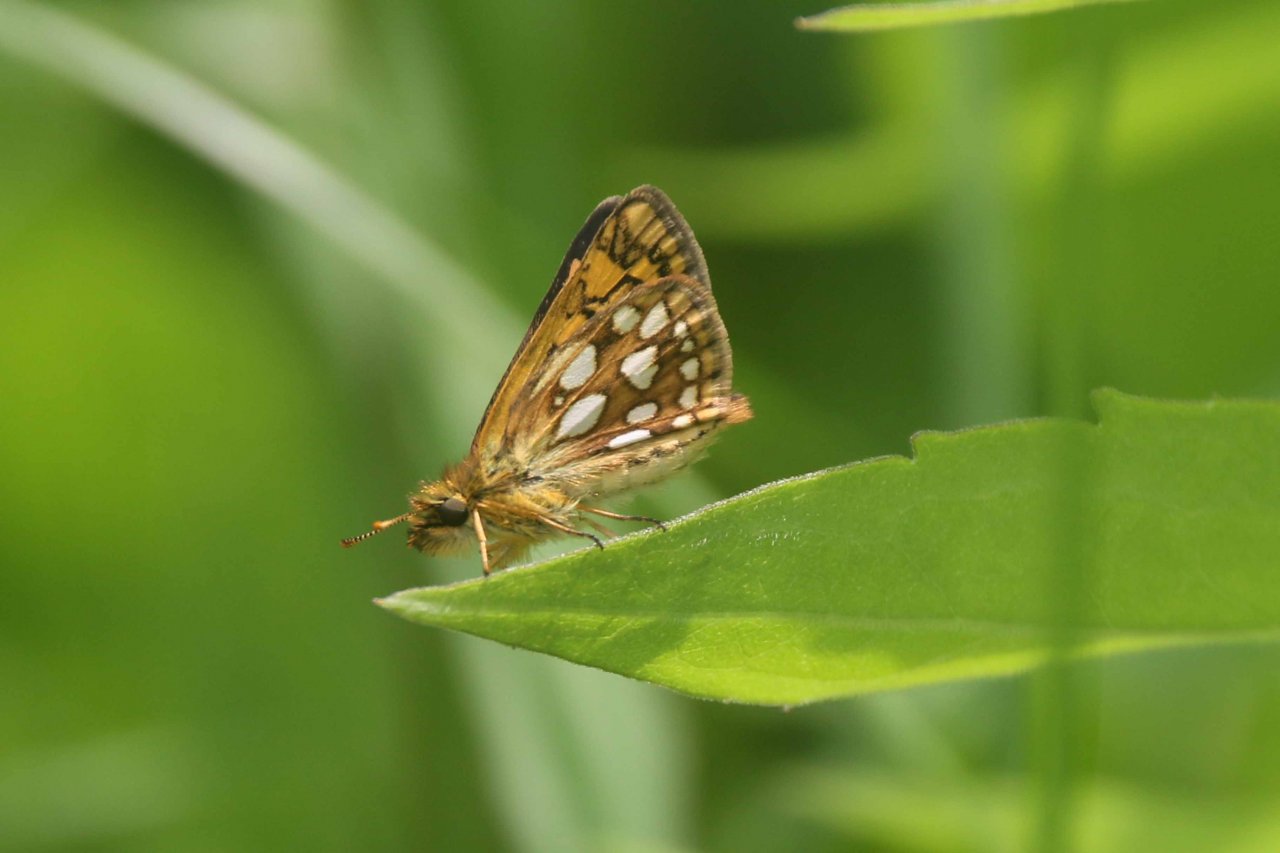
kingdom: Animalia
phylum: Arthropoda
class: Insecta
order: Lepidoptera
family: Hesperiidae
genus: Carterocephalus
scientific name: Carterocephalus palaemon
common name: Chequered Skipper
